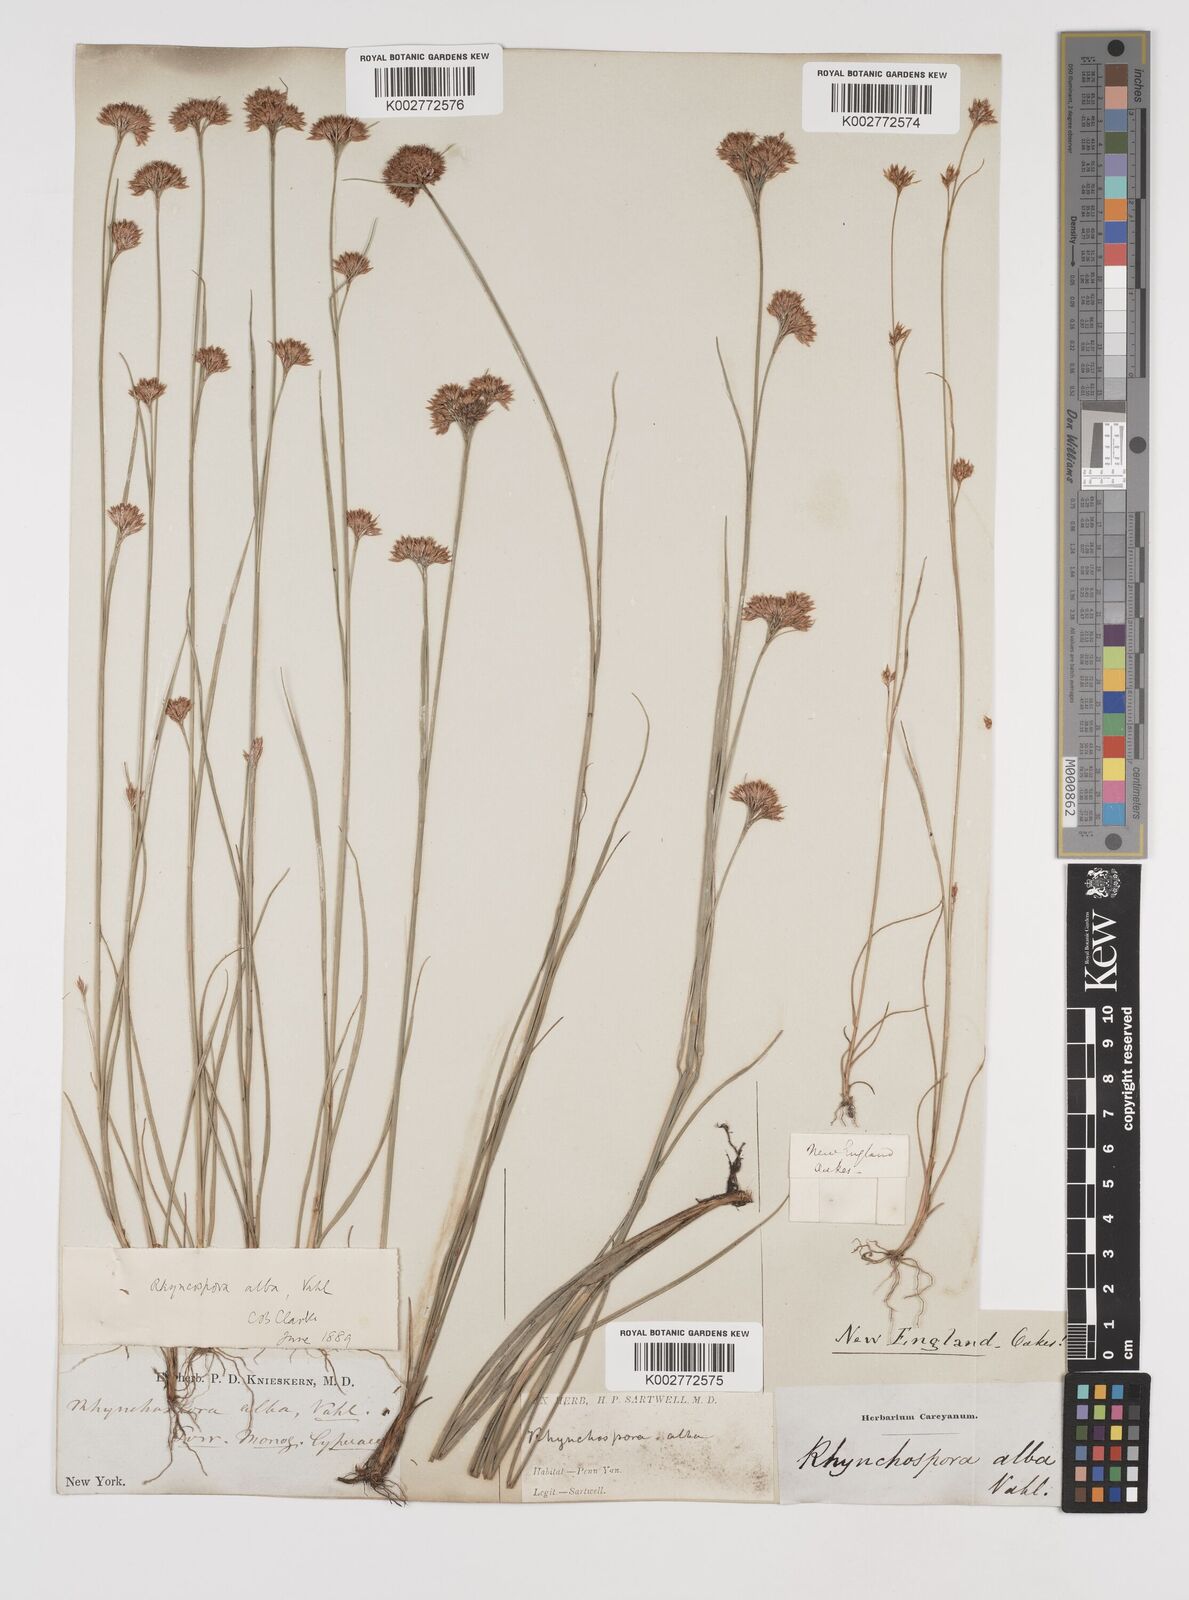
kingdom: Plantae
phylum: Tracheophyta
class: Liliopsida
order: Poales
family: Cyperaceae
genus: Rhynchospora
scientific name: Rhynchospora alba
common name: White beak-sedge
